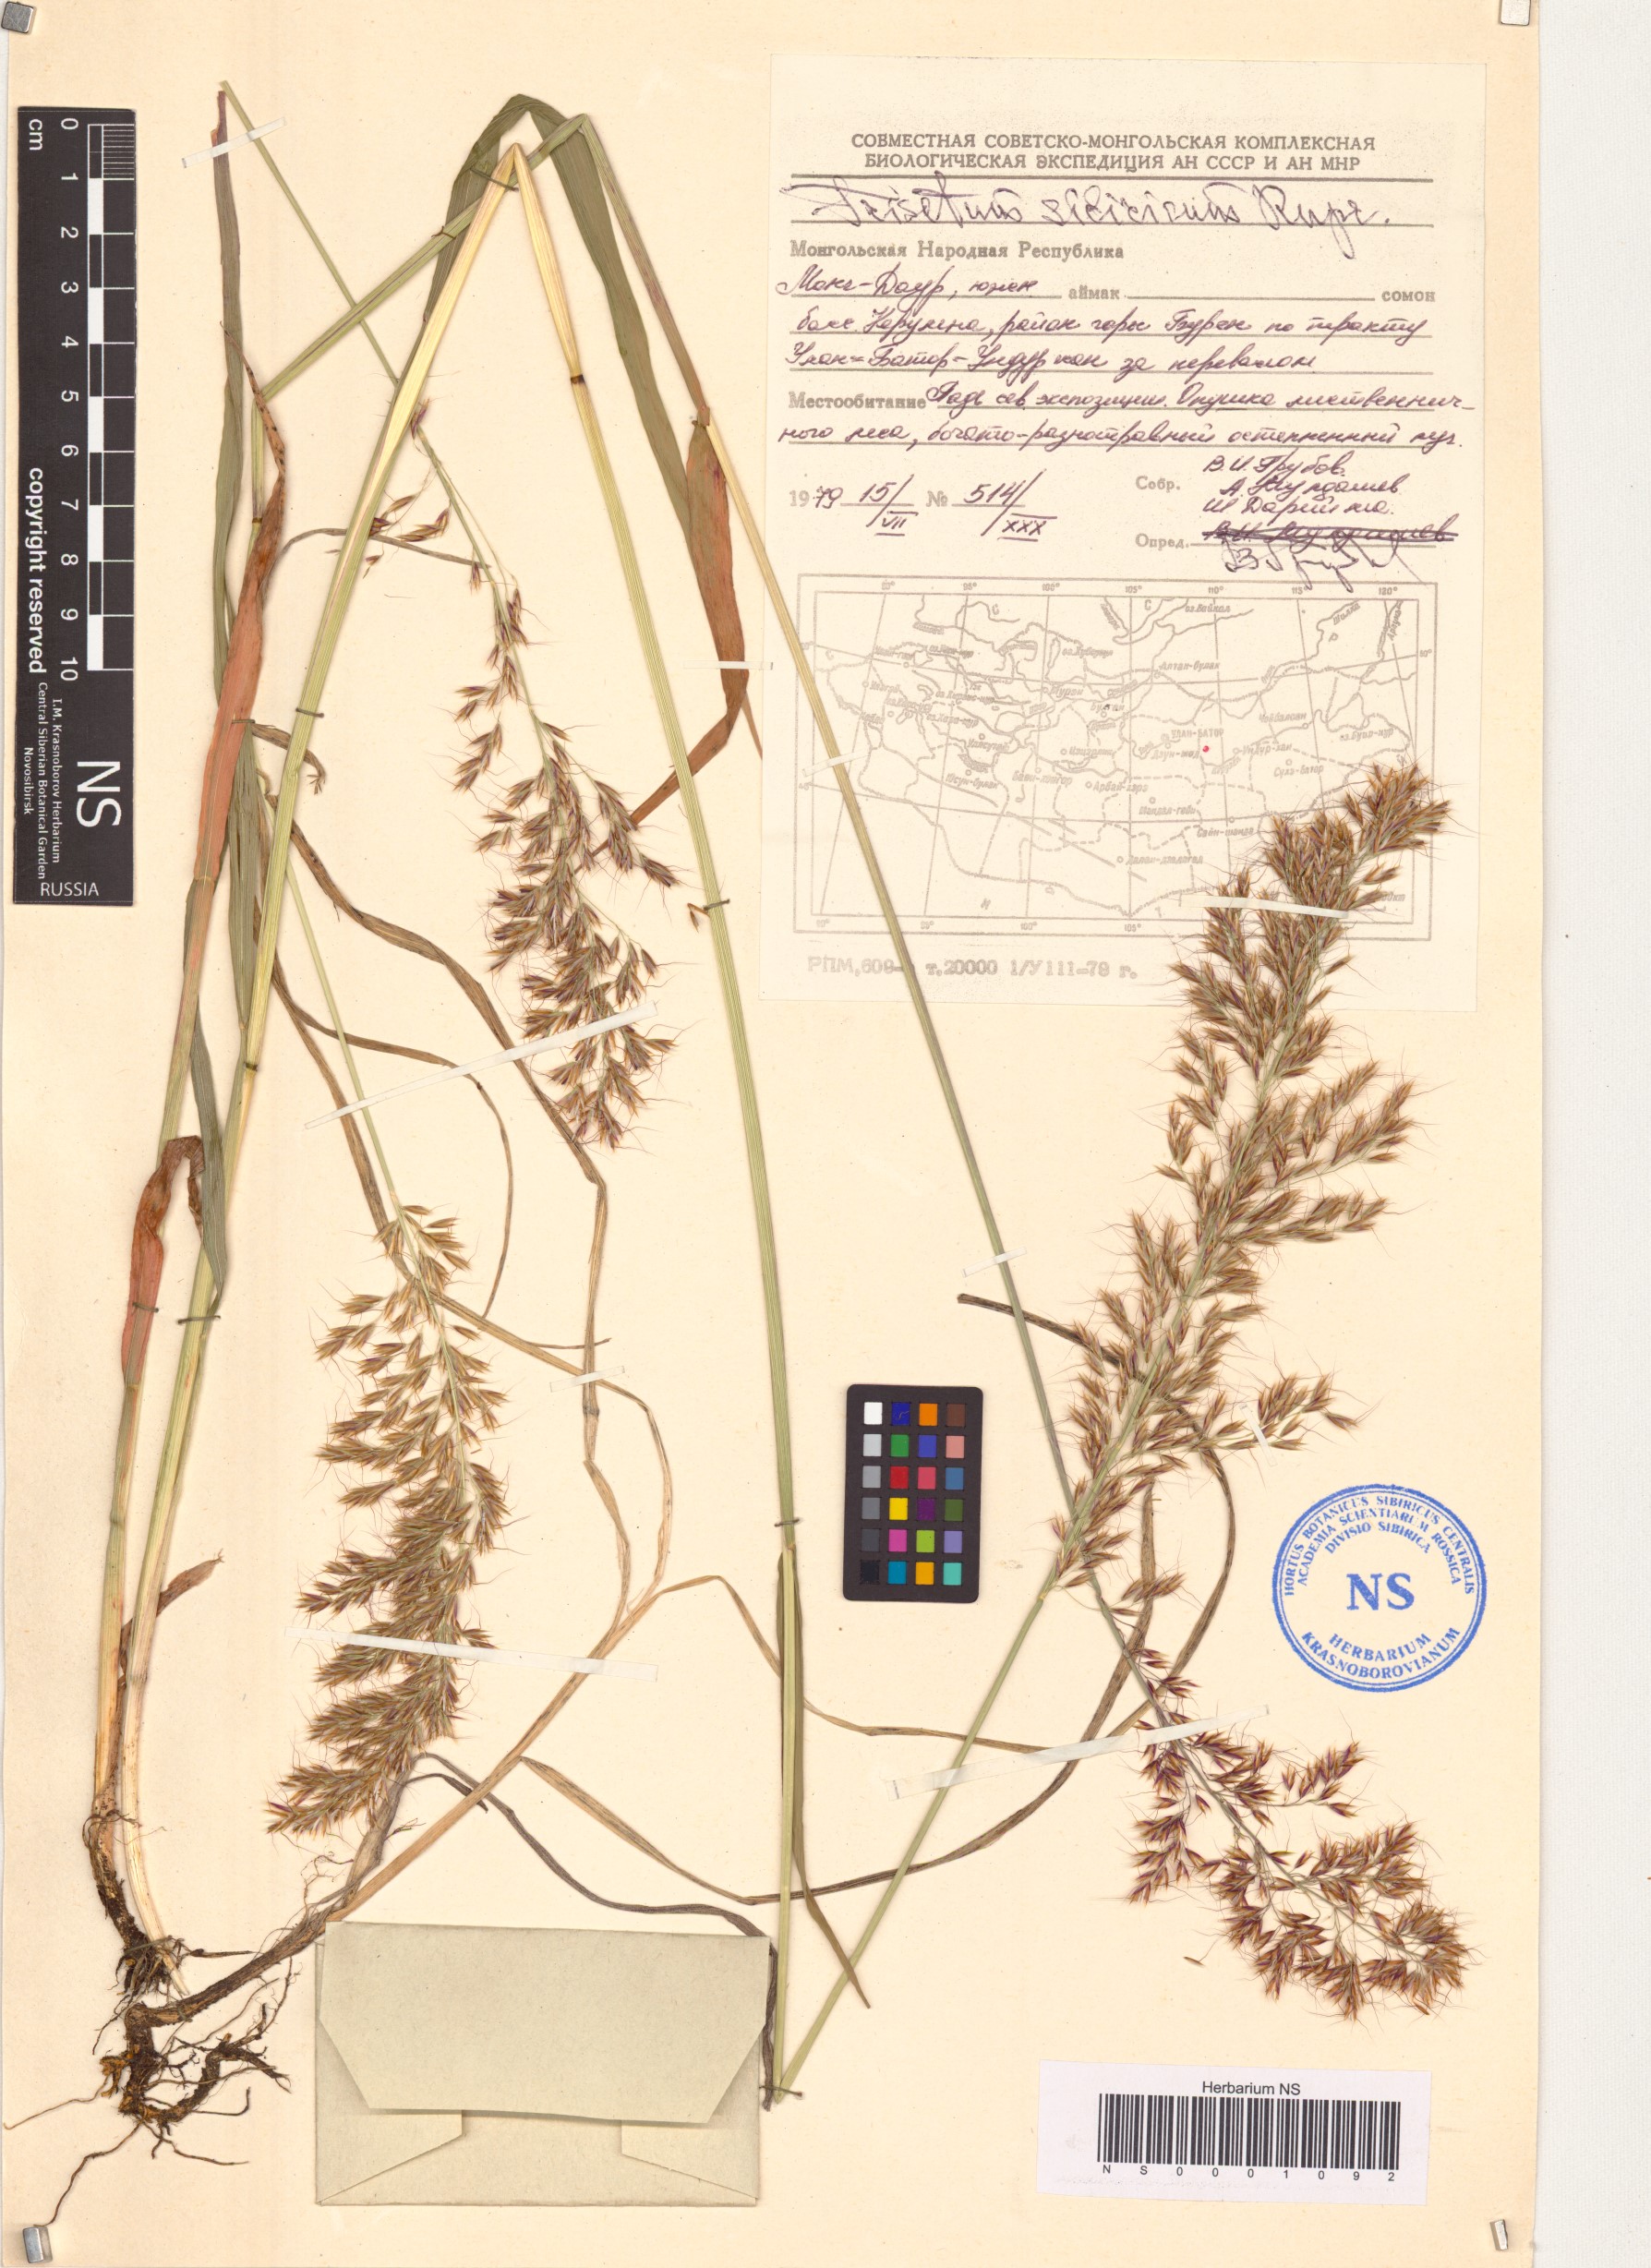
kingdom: Plantae
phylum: Tracheophyta
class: Liliopsida
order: Poales
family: Poaceae
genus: Sibirotrisetum
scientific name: Sibirotrisetum sibiricum
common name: Siberian false oat
